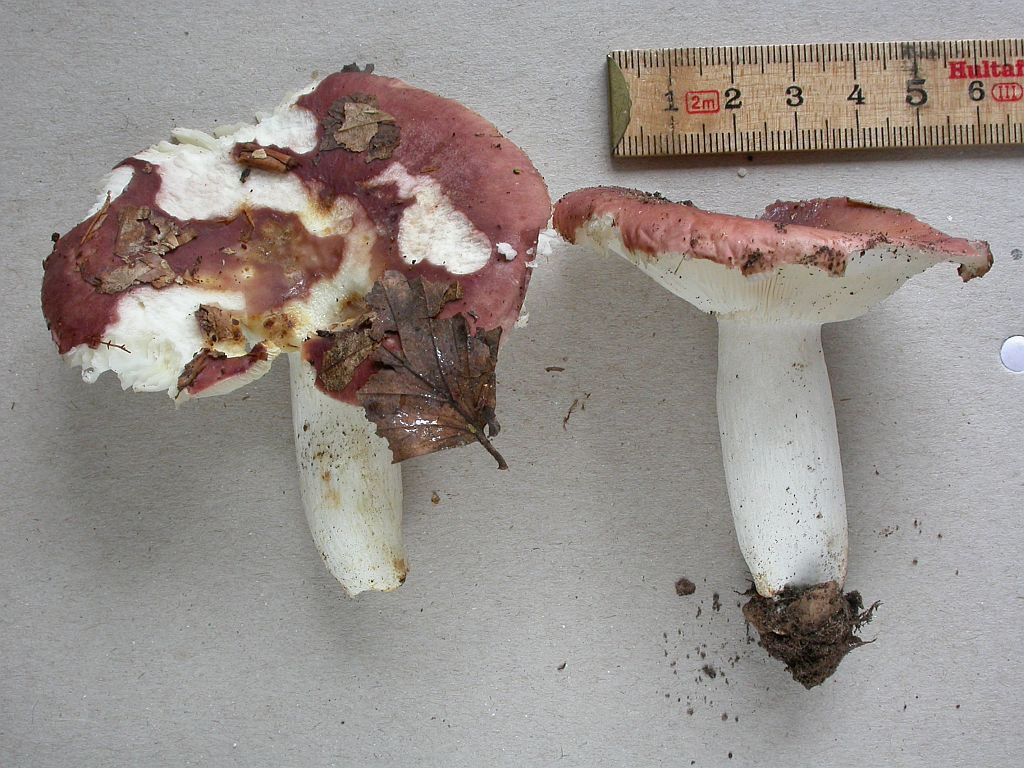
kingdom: Fungi
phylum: Basidiomycota
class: Agaricomycetes
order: Russulales
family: Russulaceae
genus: Russula
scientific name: Russula vesca
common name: spiselig skørhat
